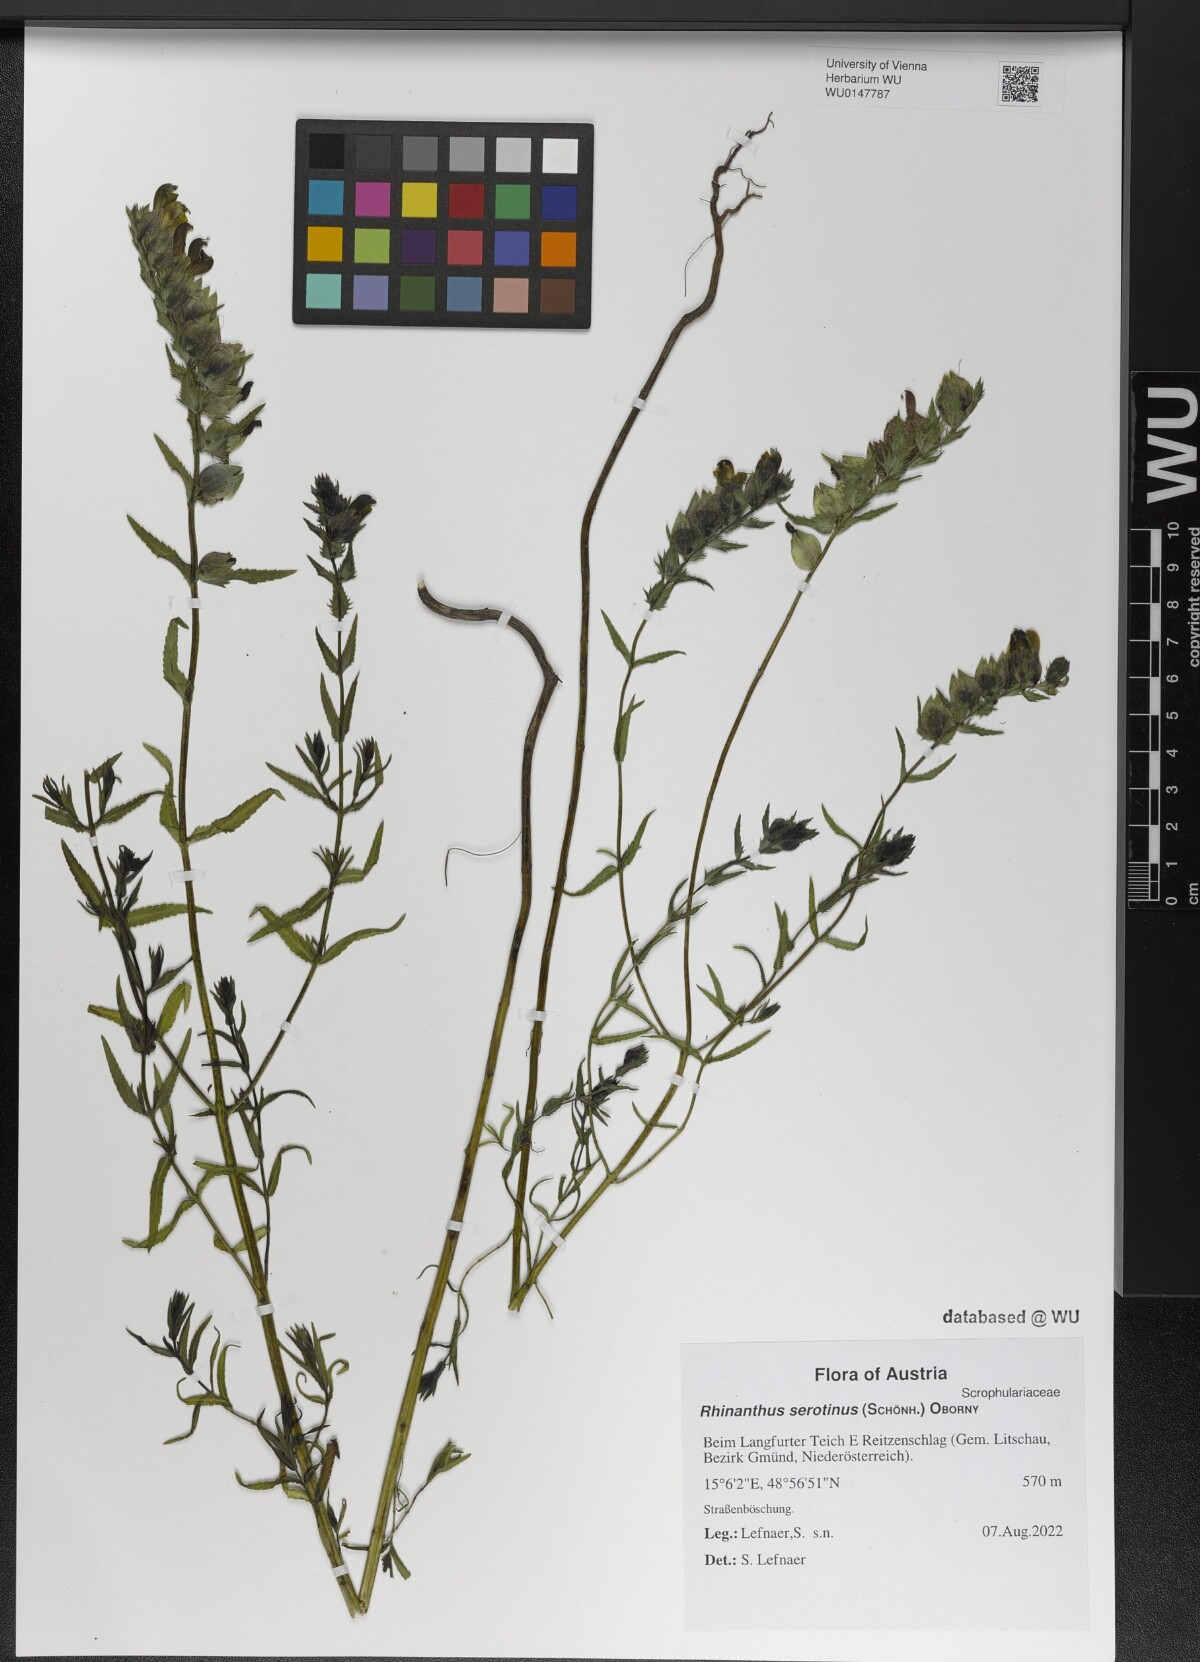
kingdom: Plantae
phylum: Tracheophyta
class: Magnoliopsida
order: Lamiales
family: Orobanchaceae
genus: Rhinanthus
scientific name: Rhinanthus serotinus
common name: Late-flowering yellow rattle
